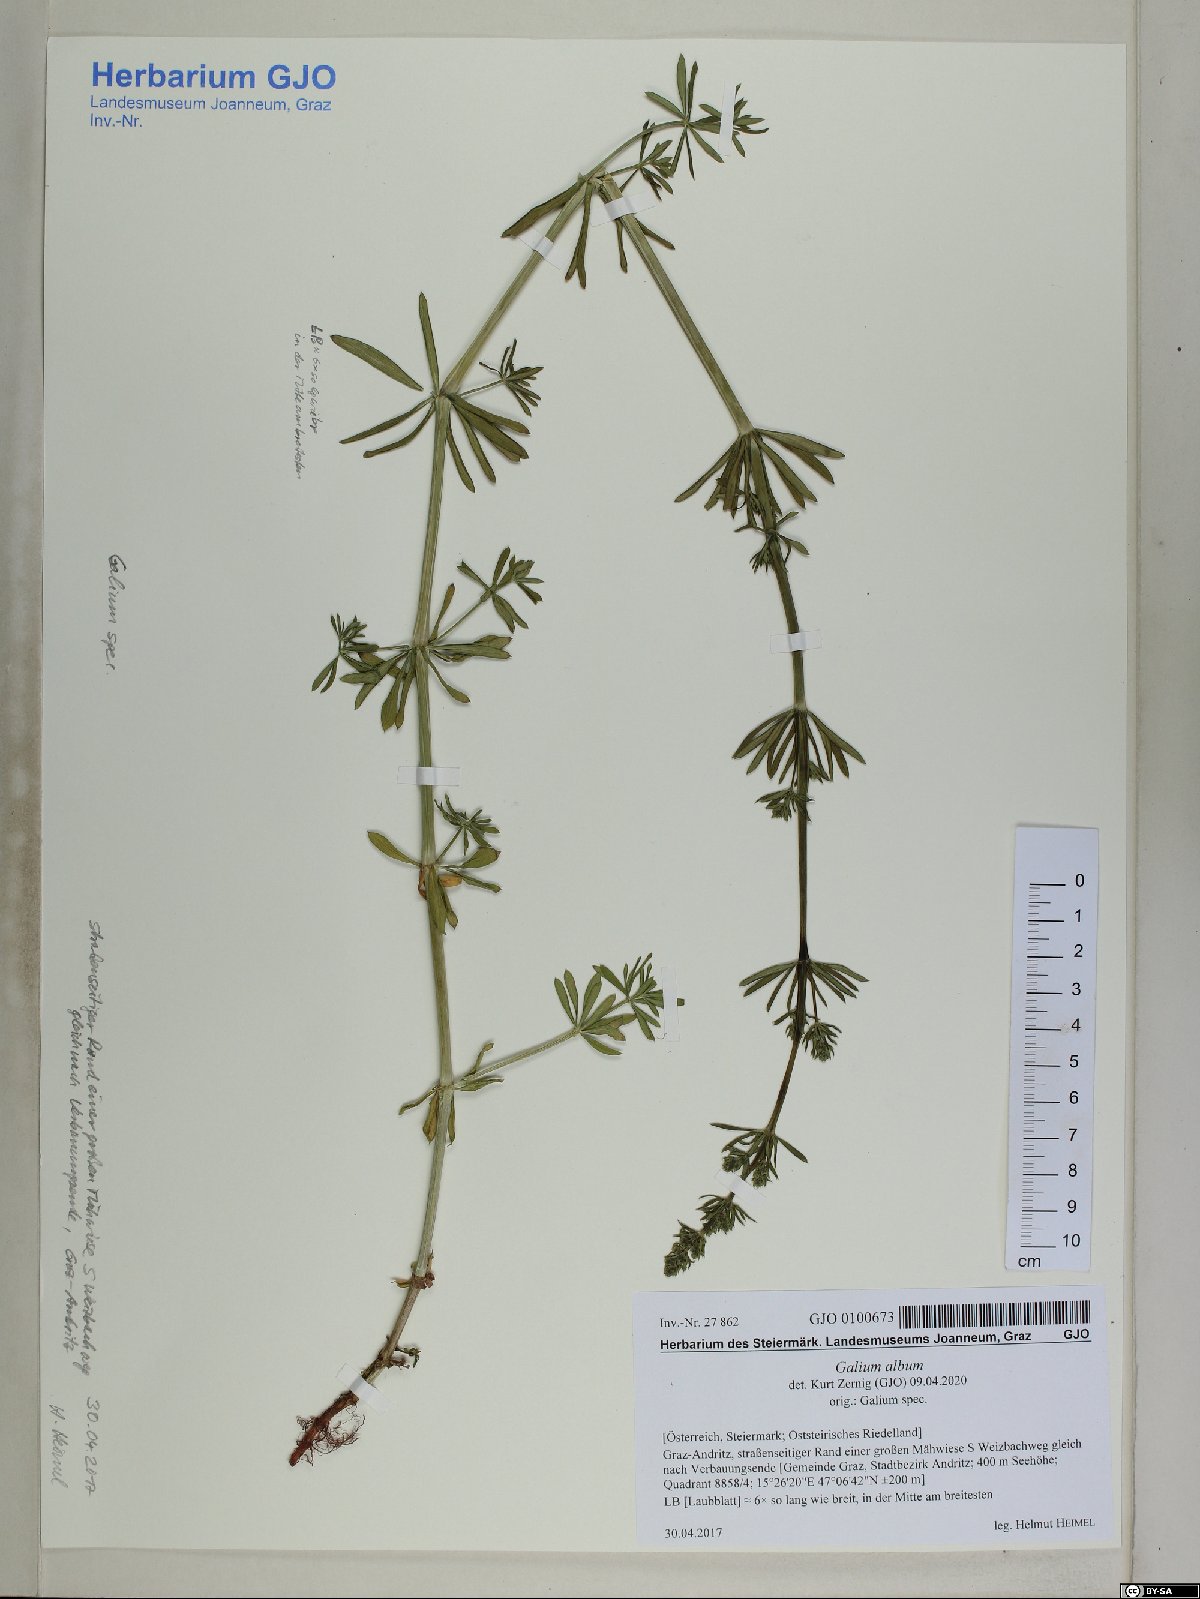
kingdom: Plantae
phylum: Tracheophyta
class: Magnoliopsida
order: Gentianales
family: Rubiaceae
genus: Galium
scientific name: Galium album
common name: White bedstraw
